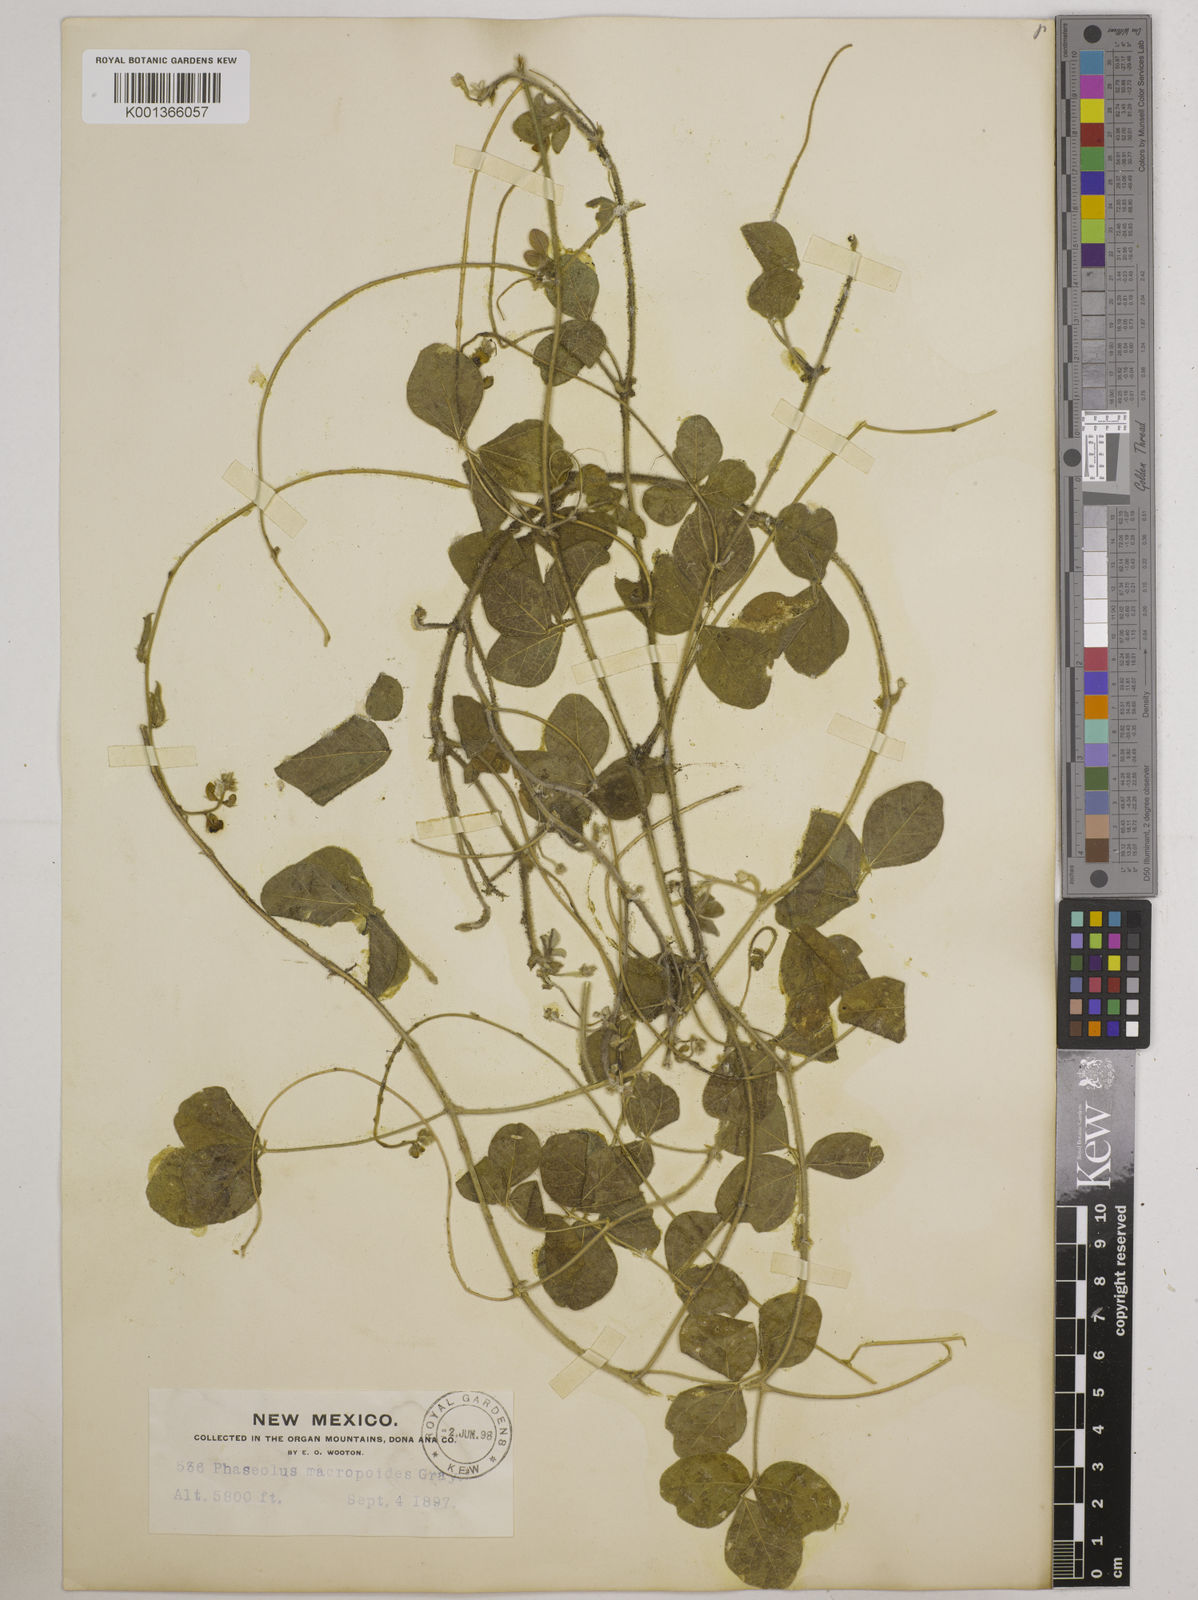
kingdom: Plantae
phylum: Tracheophyta
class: Magnoliopsida
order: Fabales
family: Fabaceae
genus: Macroptilium
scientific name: Macroptilium gibbosifolium
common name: Variableleaf bushbean
